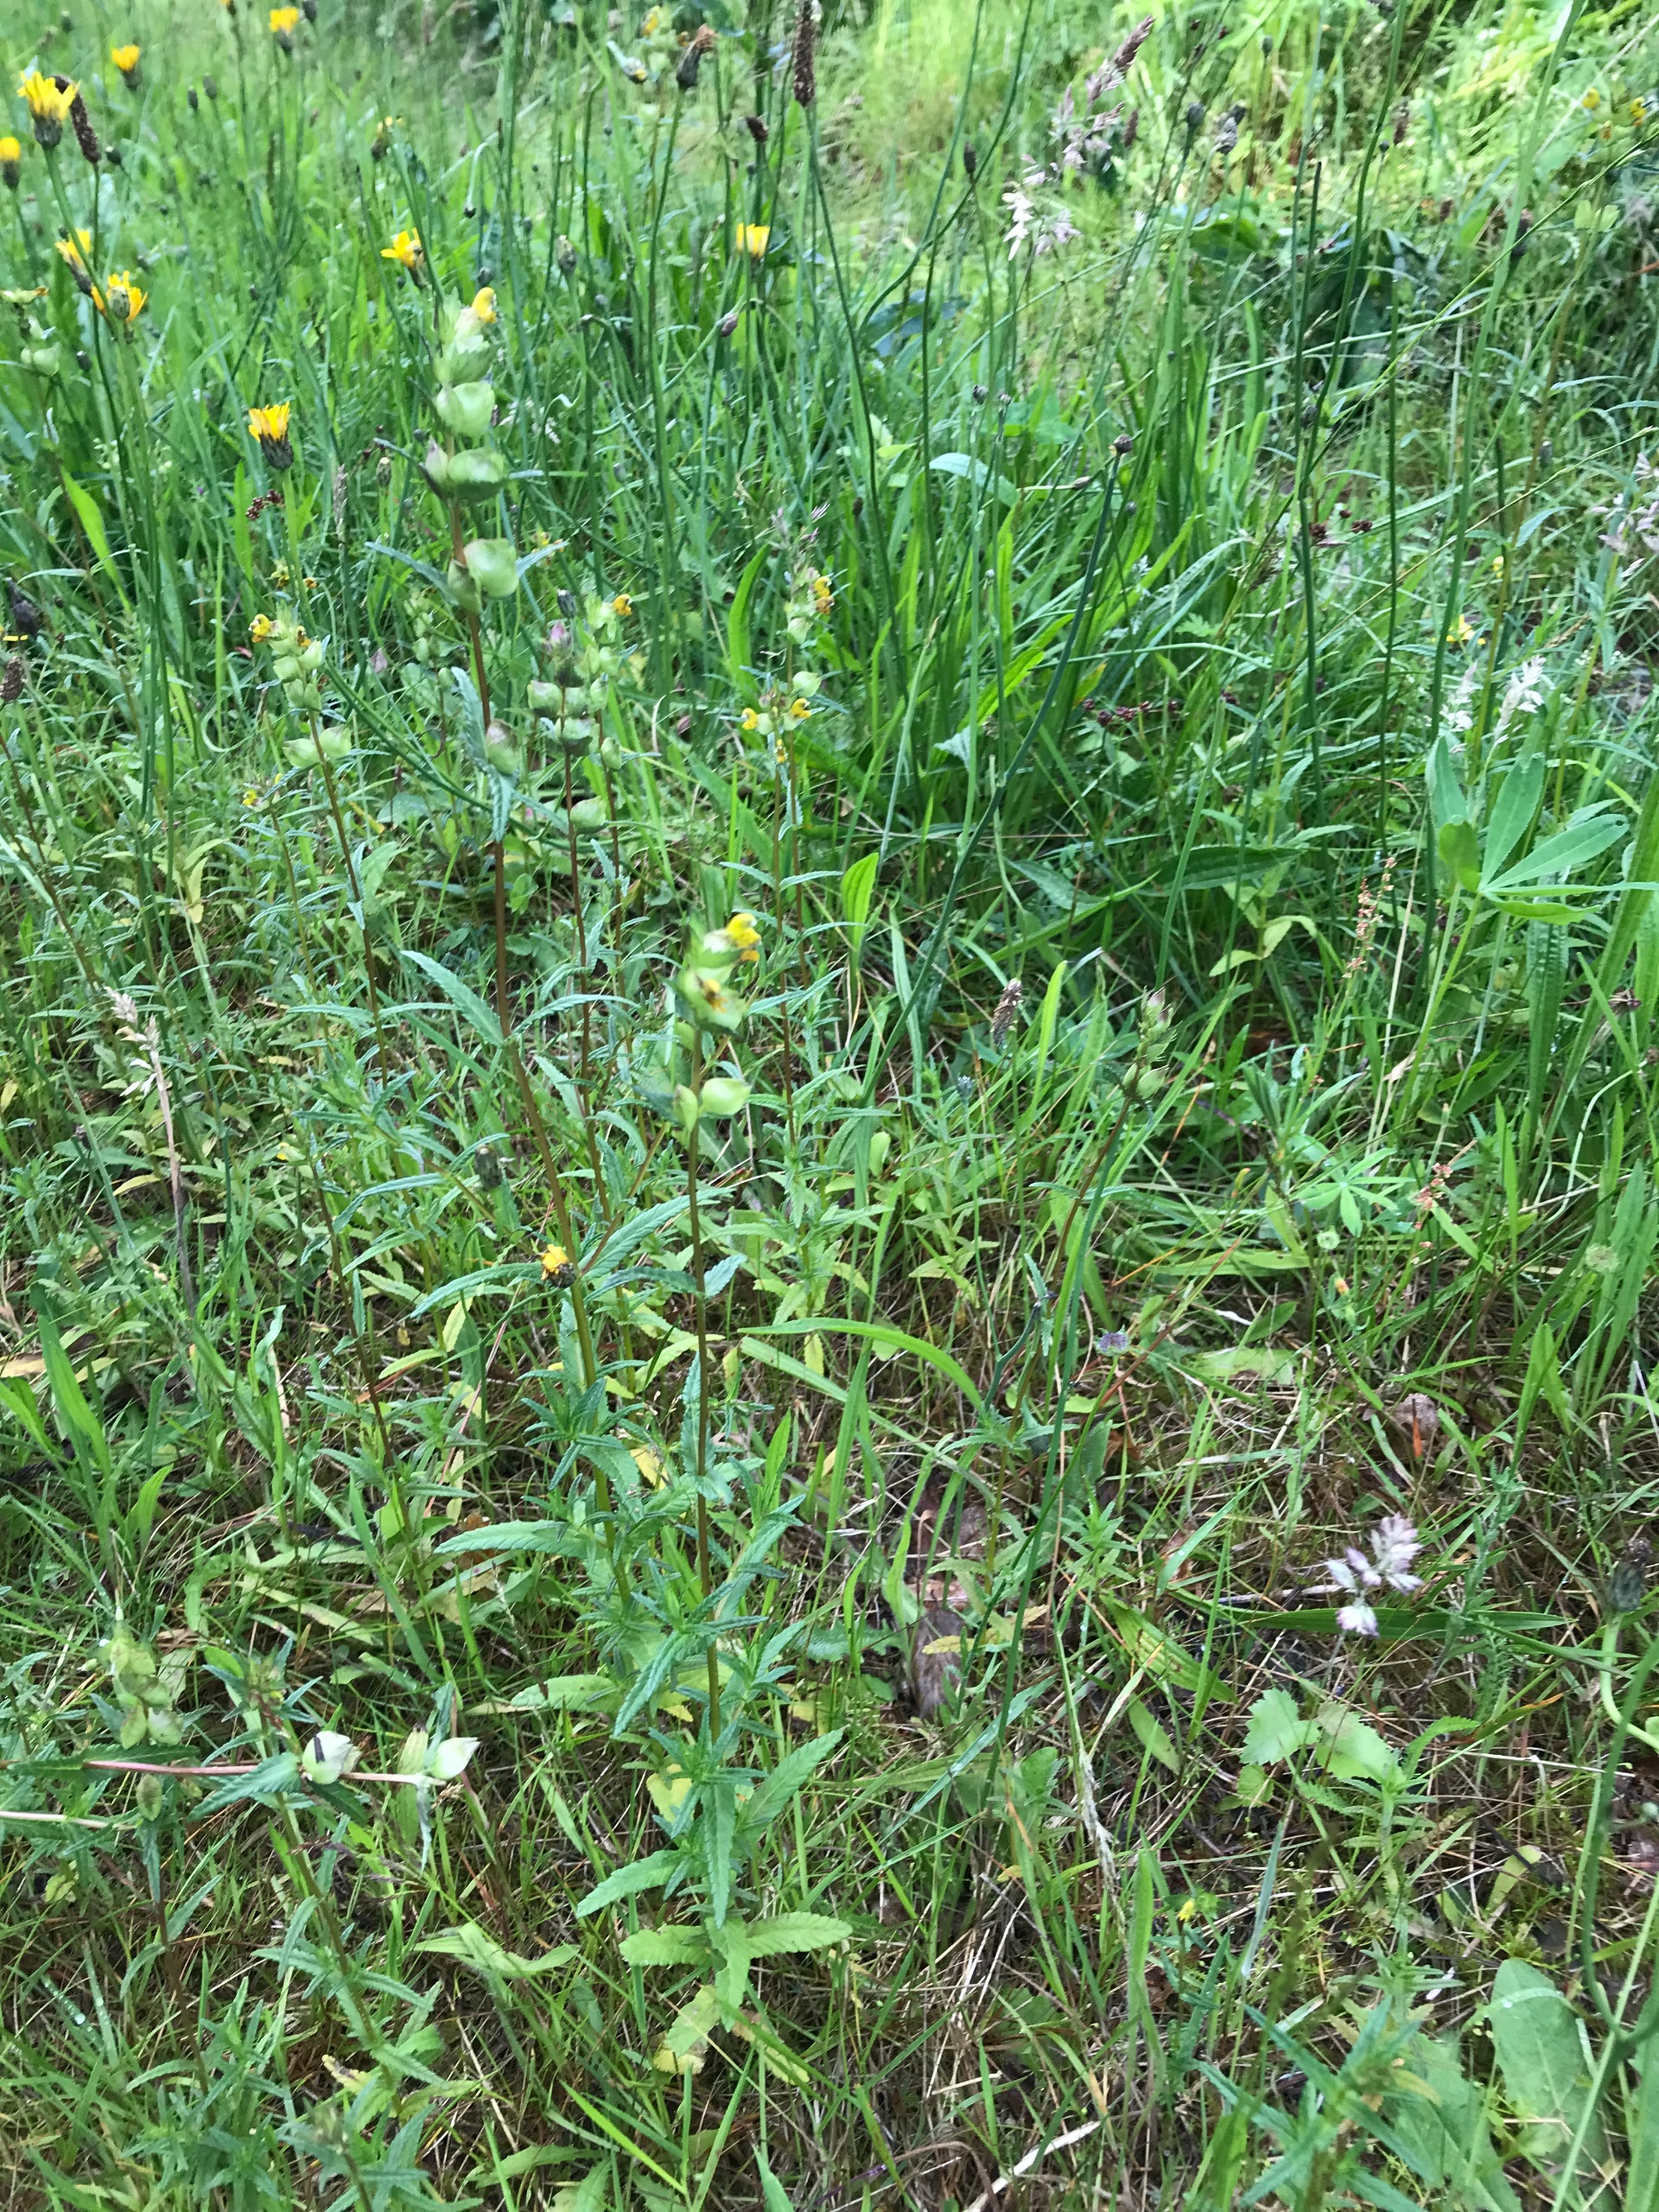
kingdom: Plantae
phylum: Tracheophyta
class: Magnoliopsida
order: Lamiales
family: Orobanchaceae
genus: Rhinanthus
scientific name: Rhinanthus minor
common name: Liden skjaller
